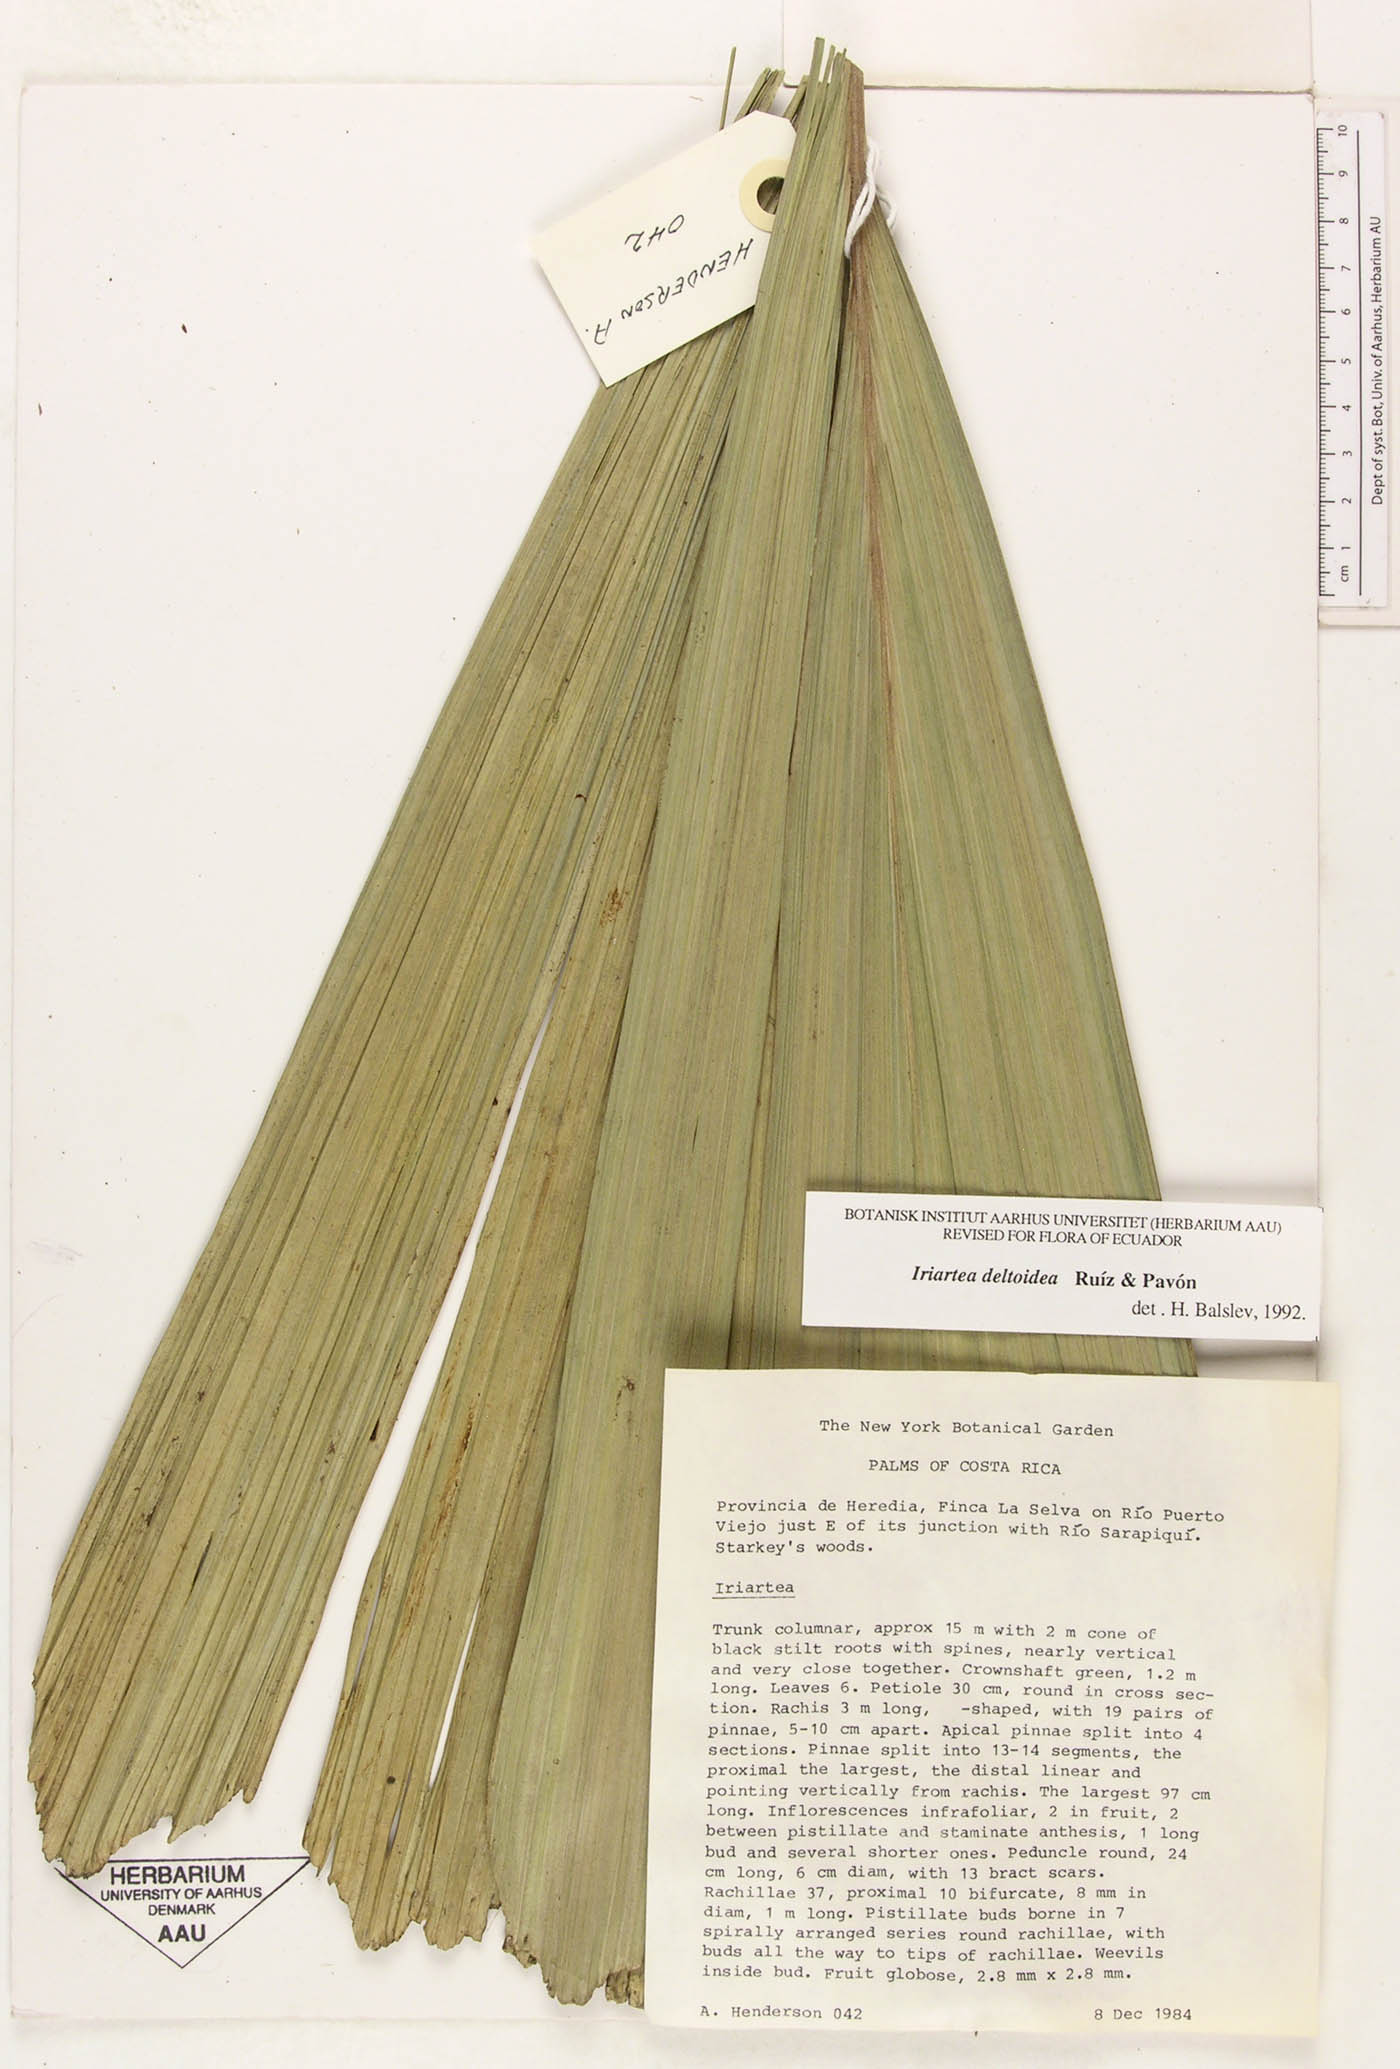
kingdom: Plantae
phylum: Tracheophyta
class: Liliopsida
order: Arecales
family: Arecaceae
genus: Iriartea
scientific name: Iriartea deltoidea
